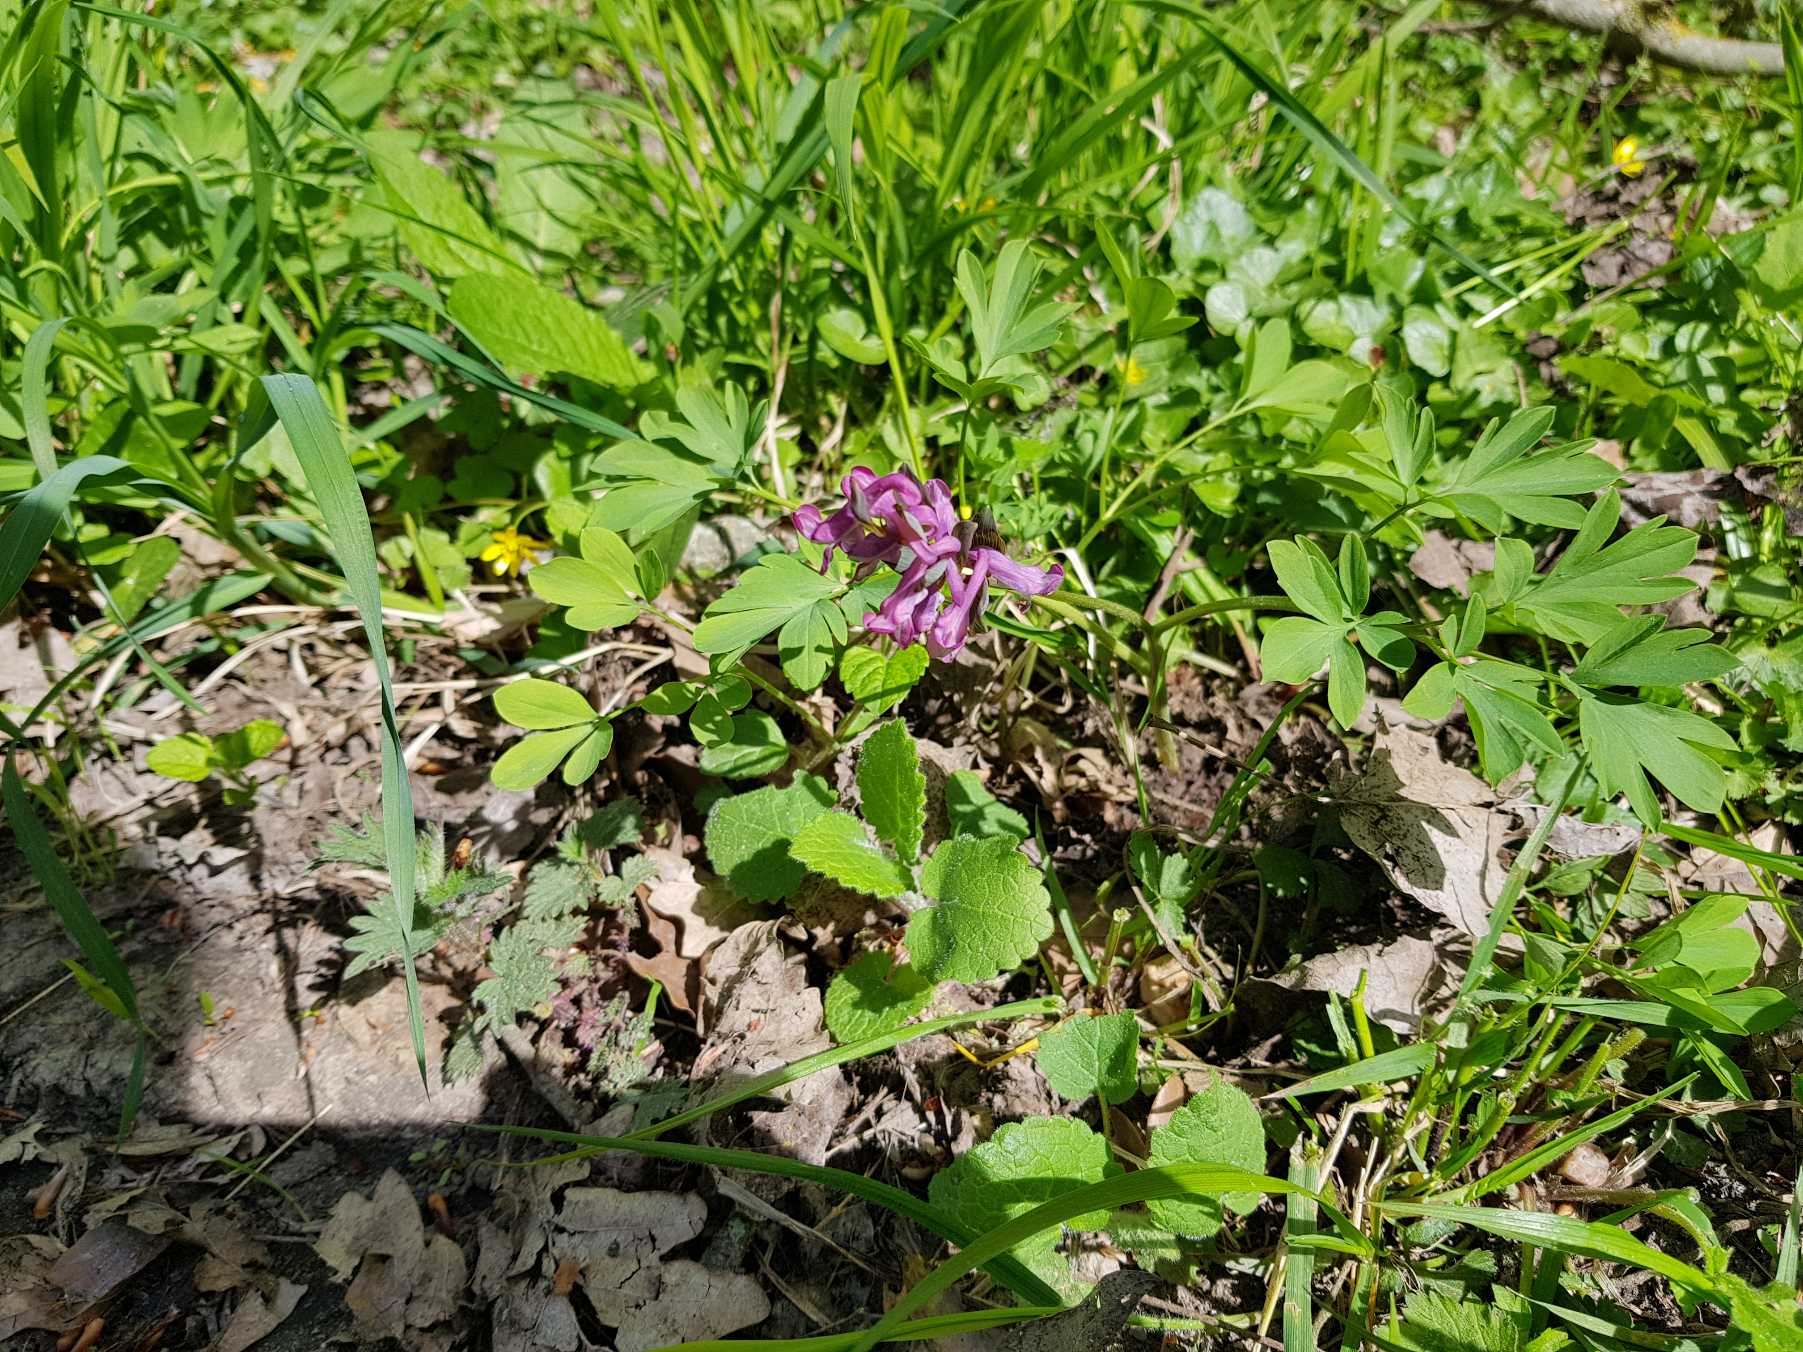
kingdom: Plantae
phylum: Tracheophyta
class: Magnoliopsida
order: Ranunculales
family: Papaveraceae
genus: Corydalis
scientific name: Corydalis cava
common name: Hulrodet lærkespore
